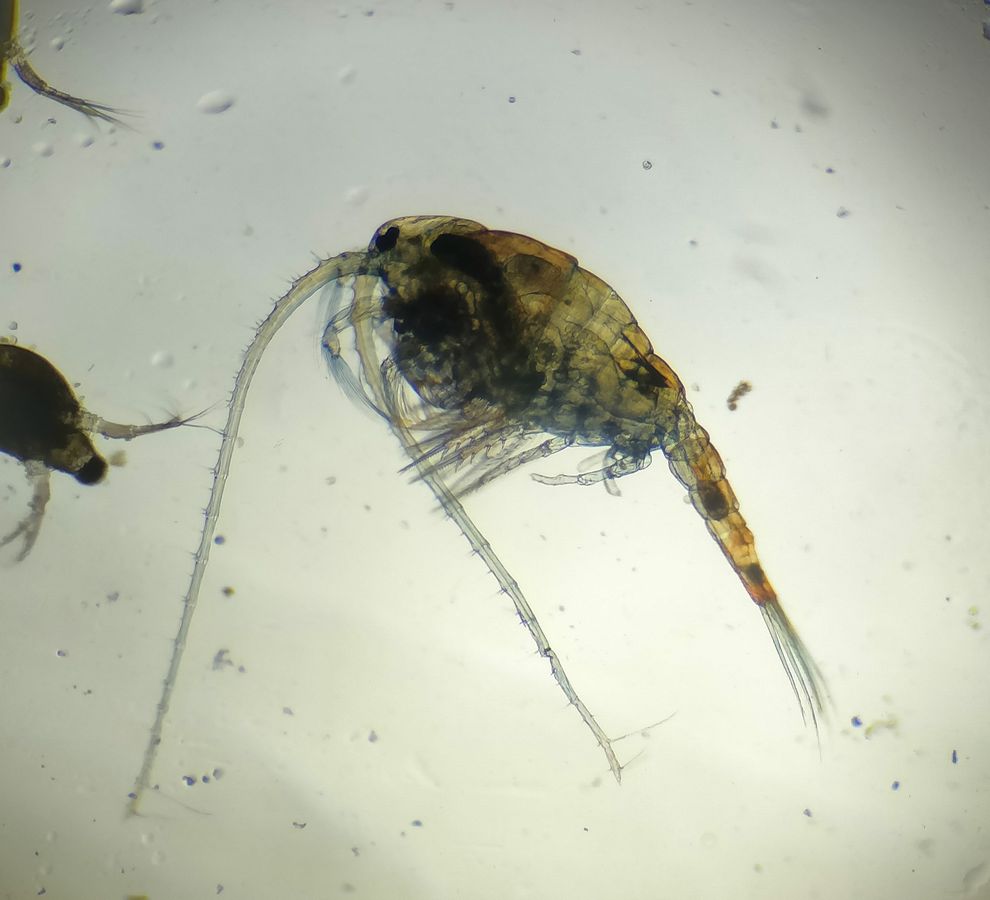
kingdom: Animalia
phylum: Arthropoda
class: Copepoda
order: Calanoida
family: Temoridae
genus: Heterocope
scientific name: Heterocope appendiculata
